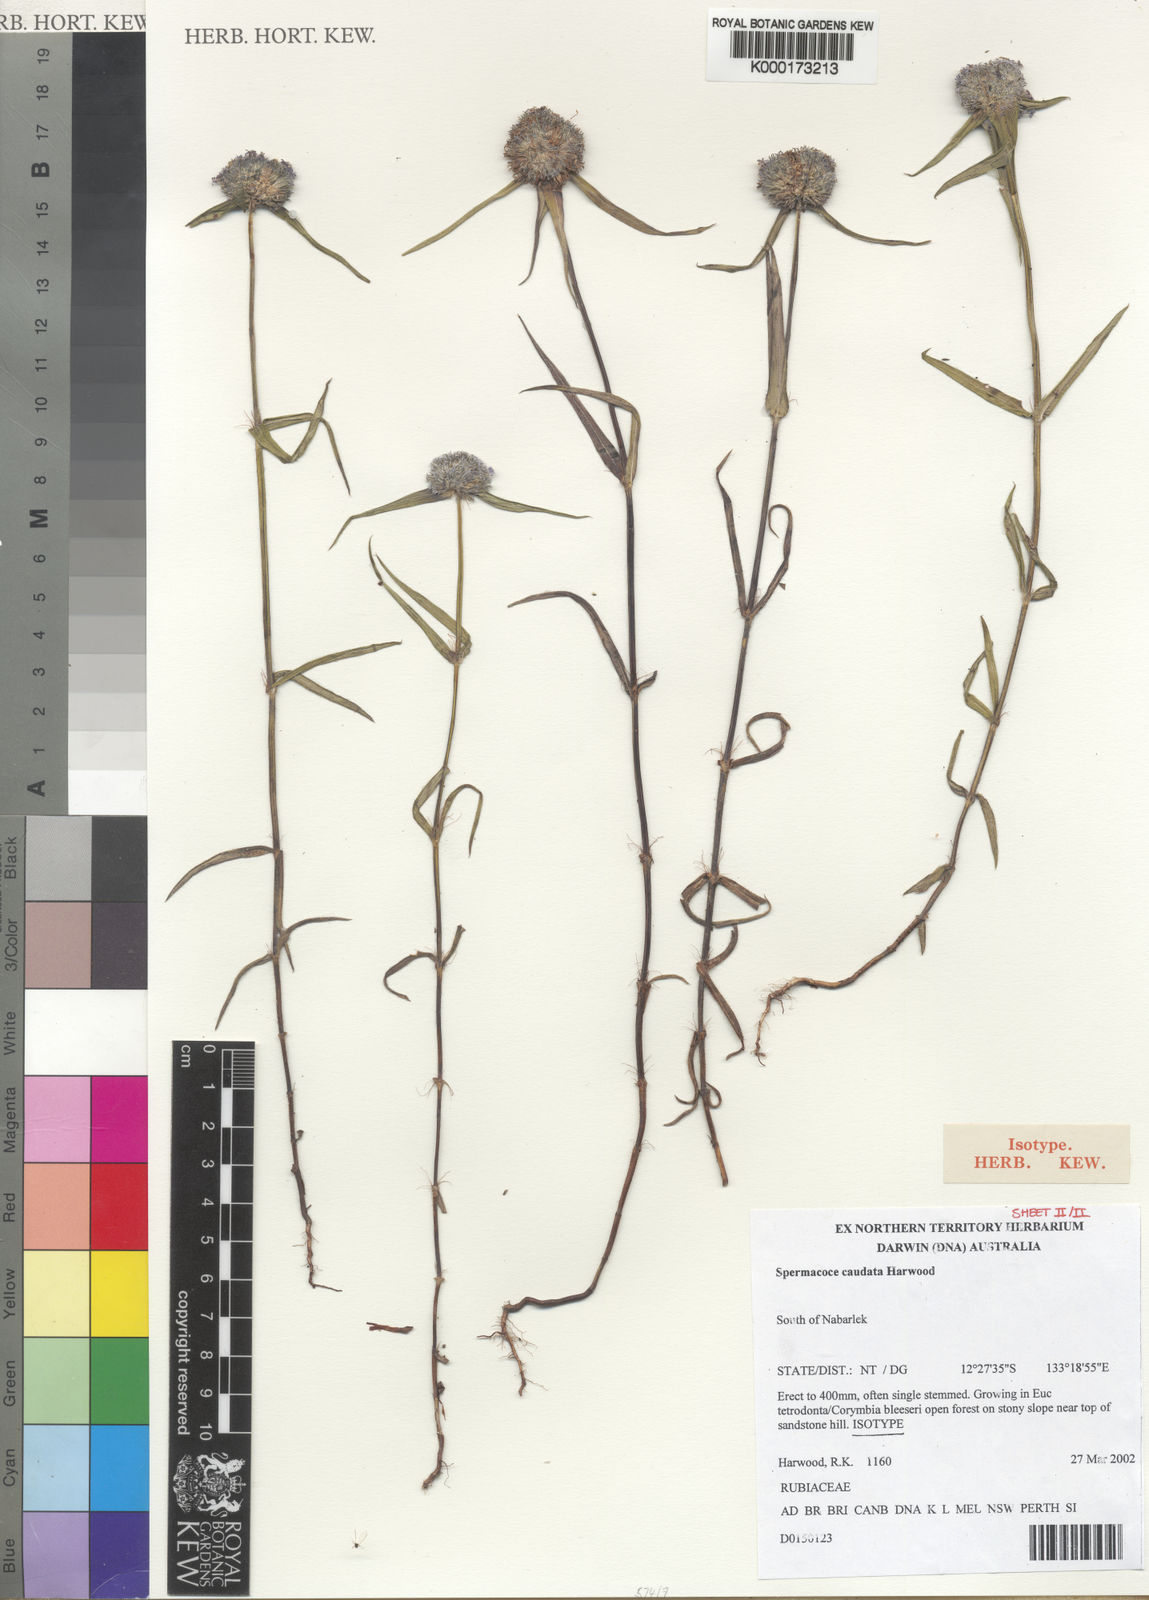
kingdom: Plantae
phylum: Tracheophyta
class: Magnoliopsida
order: Gentianales
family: Rubiaceae
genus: Spermacoce
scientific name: Spermacoce caudata
